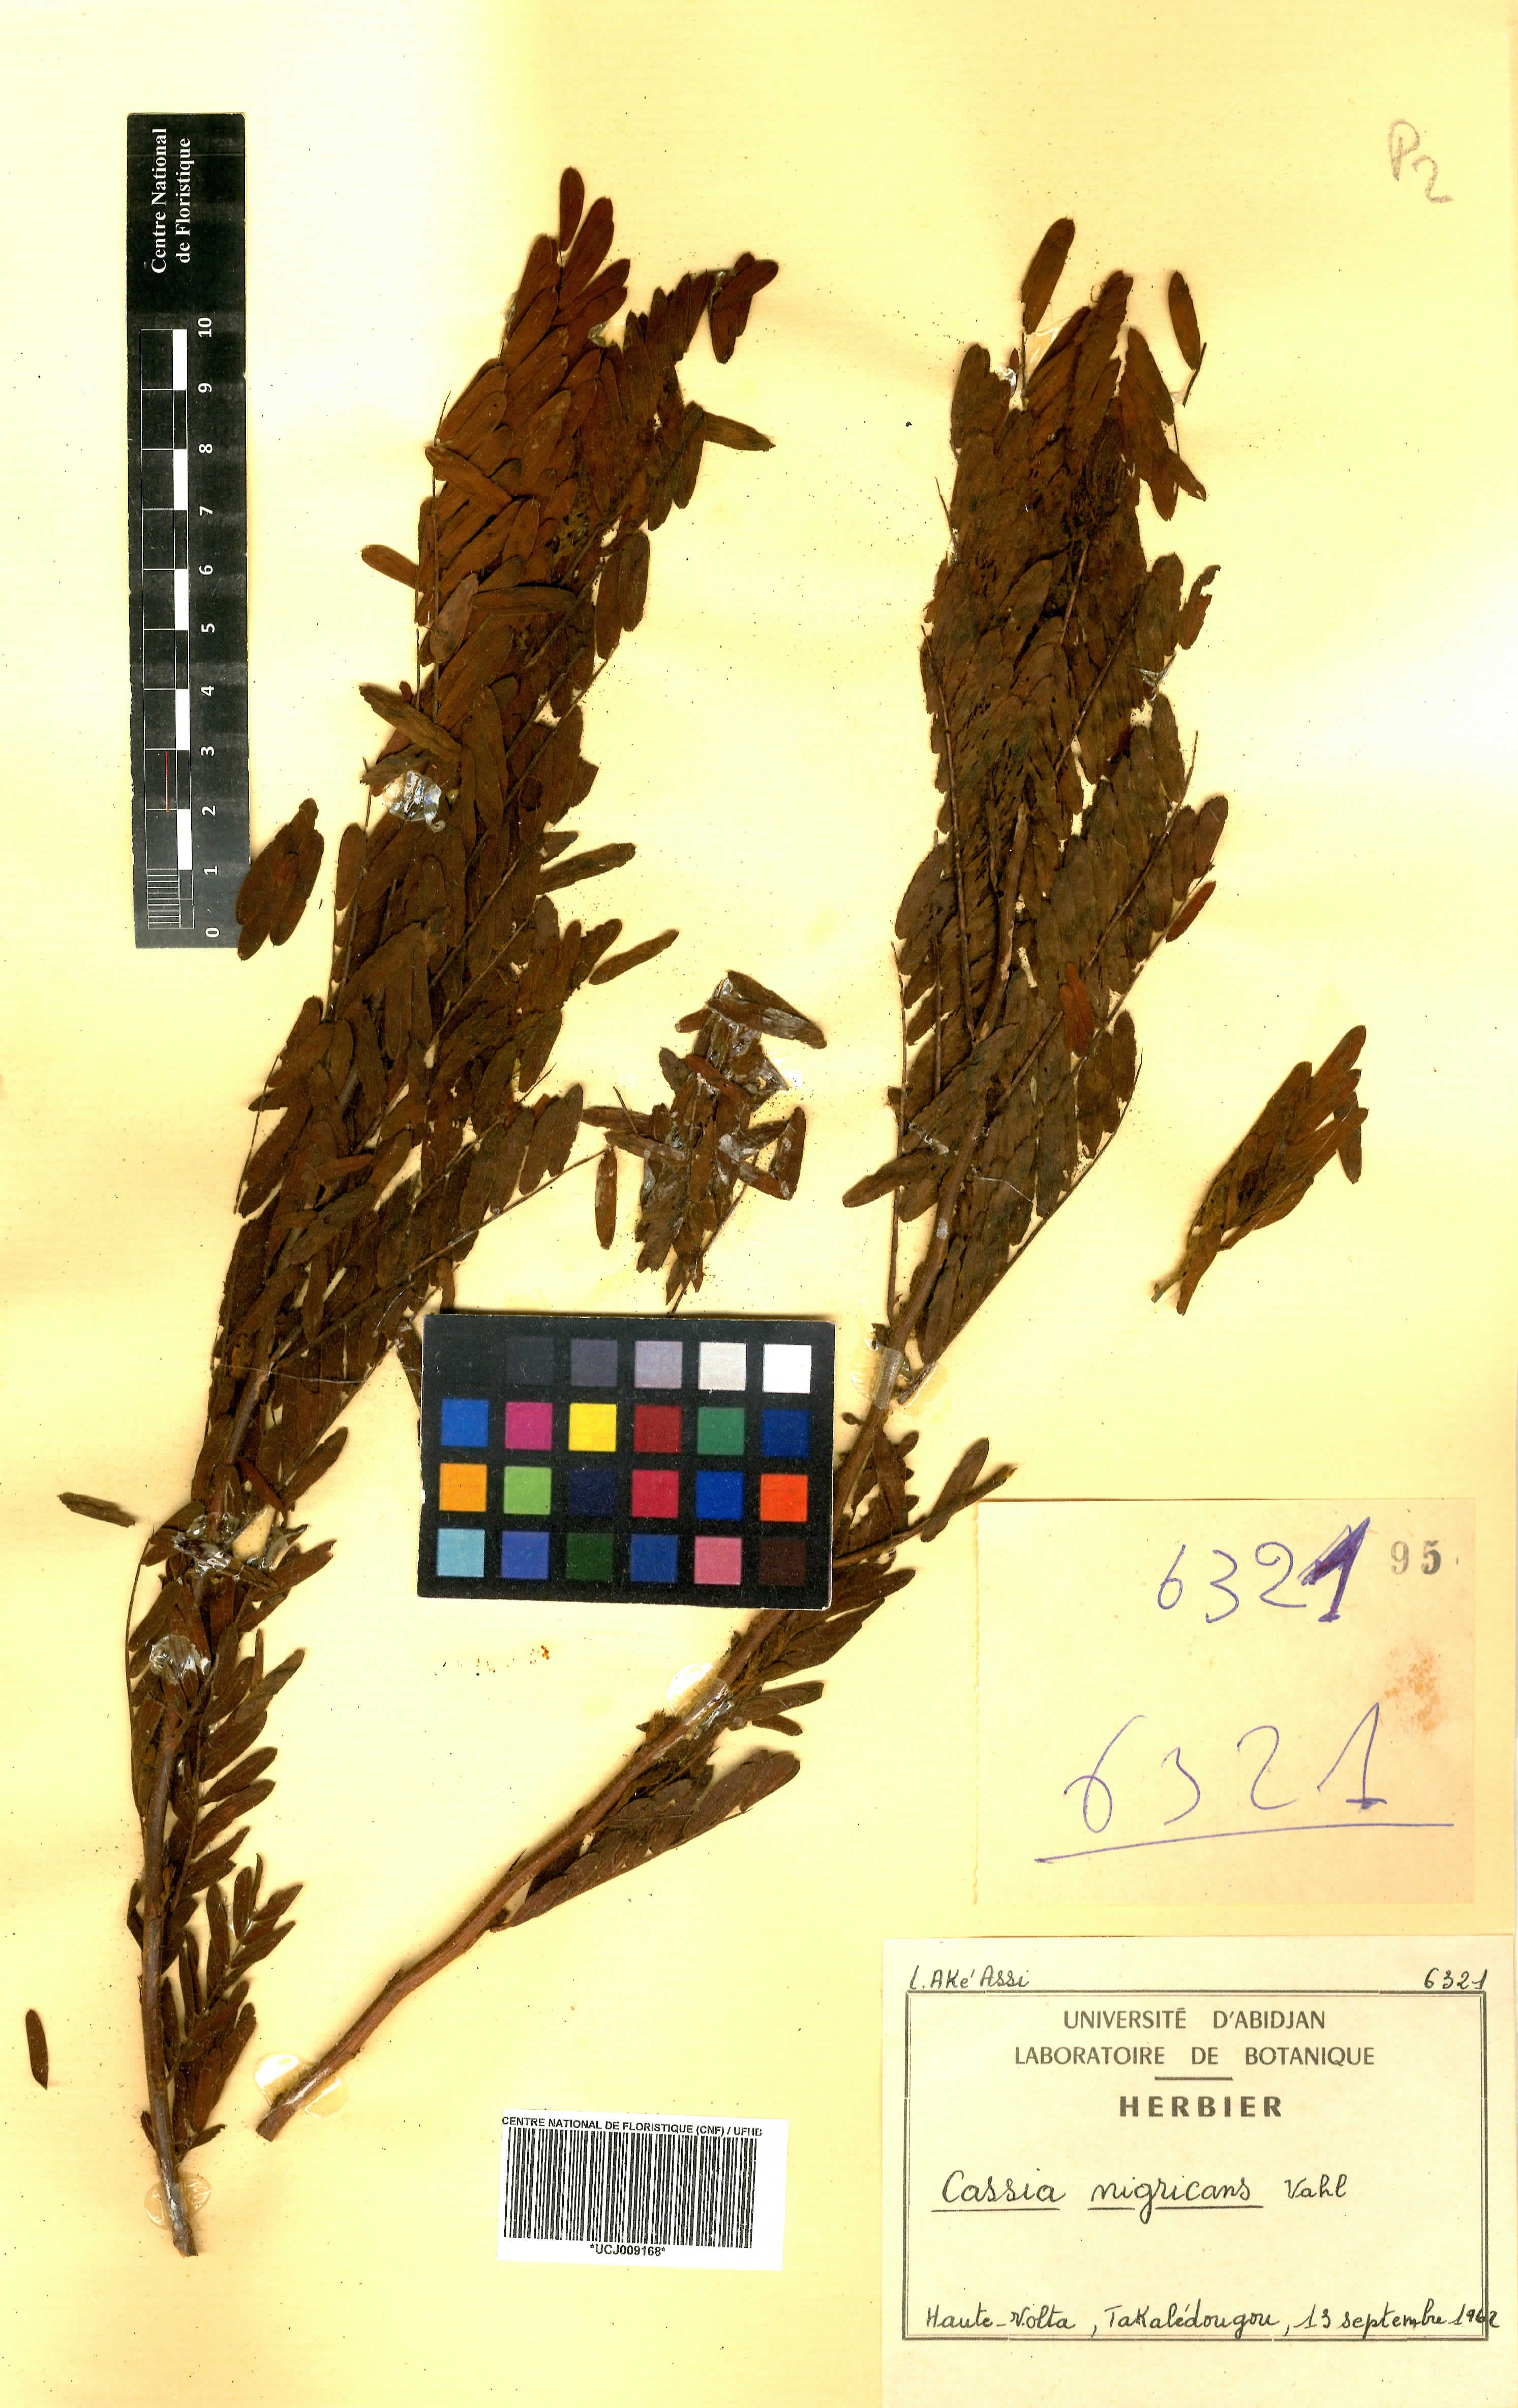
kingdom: Plantae
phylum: Tracheophyta
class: Magnoliopsida
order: Fabales
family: Fabaceae
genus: Chamaecrista
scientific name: Chamaecrista nigricans
